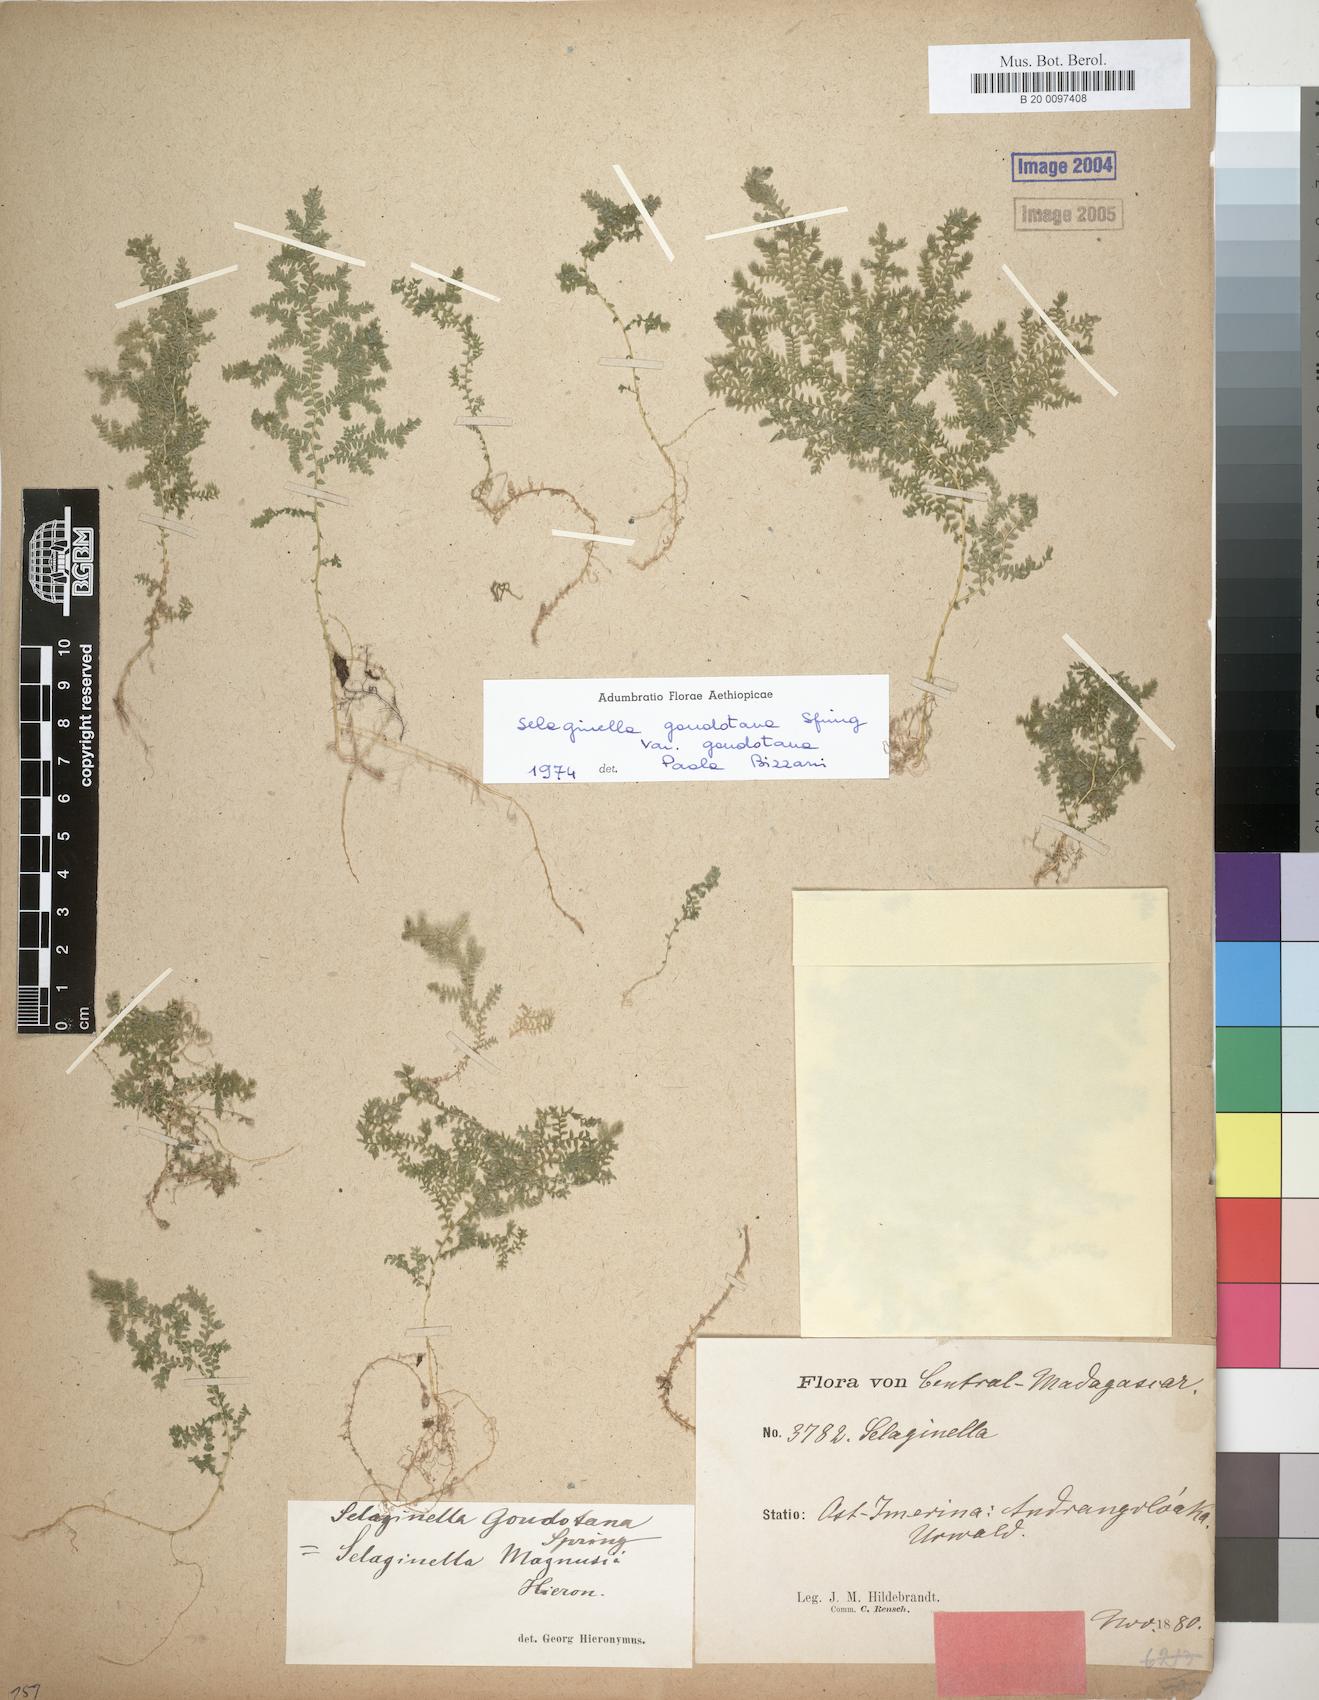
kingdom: Plantae
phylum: Tracheophyta
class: Lycopodiopsida
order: Selaginellales
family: Selaginellaceae
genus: Selaginella
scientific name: Selaginella goudotiana
